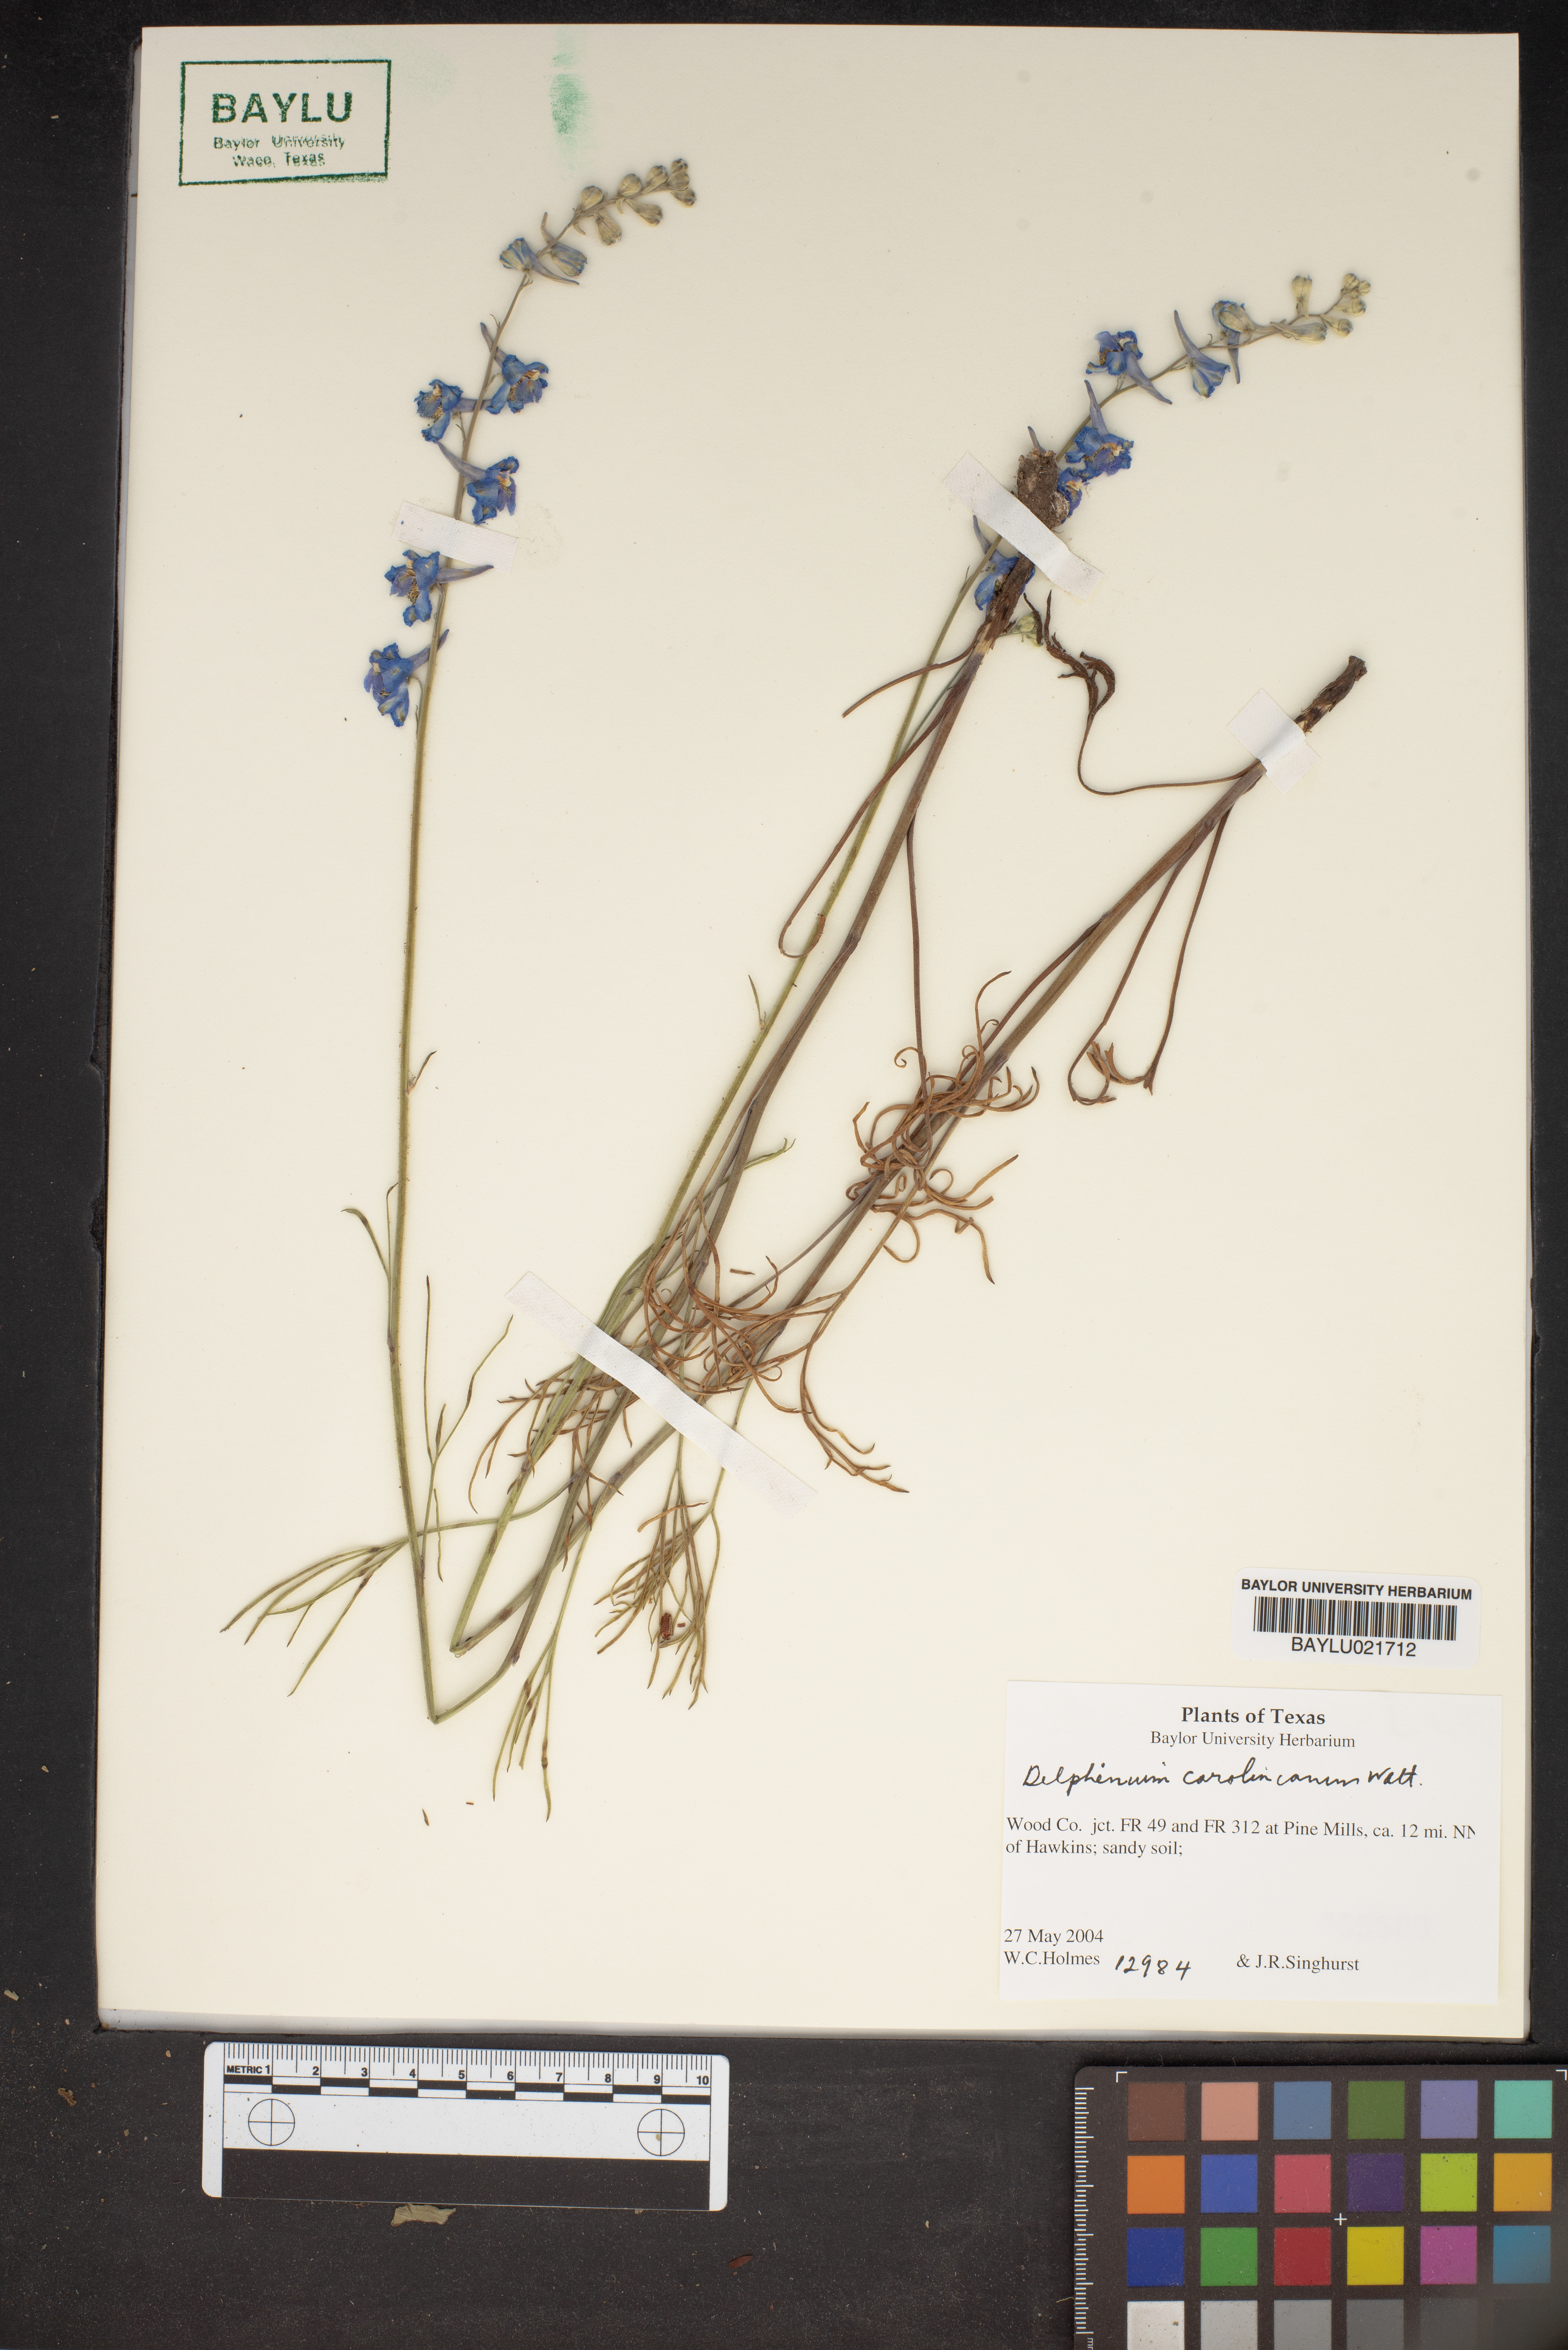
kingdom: Plantae
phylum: Tracheophyta
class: Magnoliopsida
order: Ranunculales
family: Ranunculaceae
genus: Delphinium
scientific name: Delphinium carolinianum
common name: Carolina larkspur
